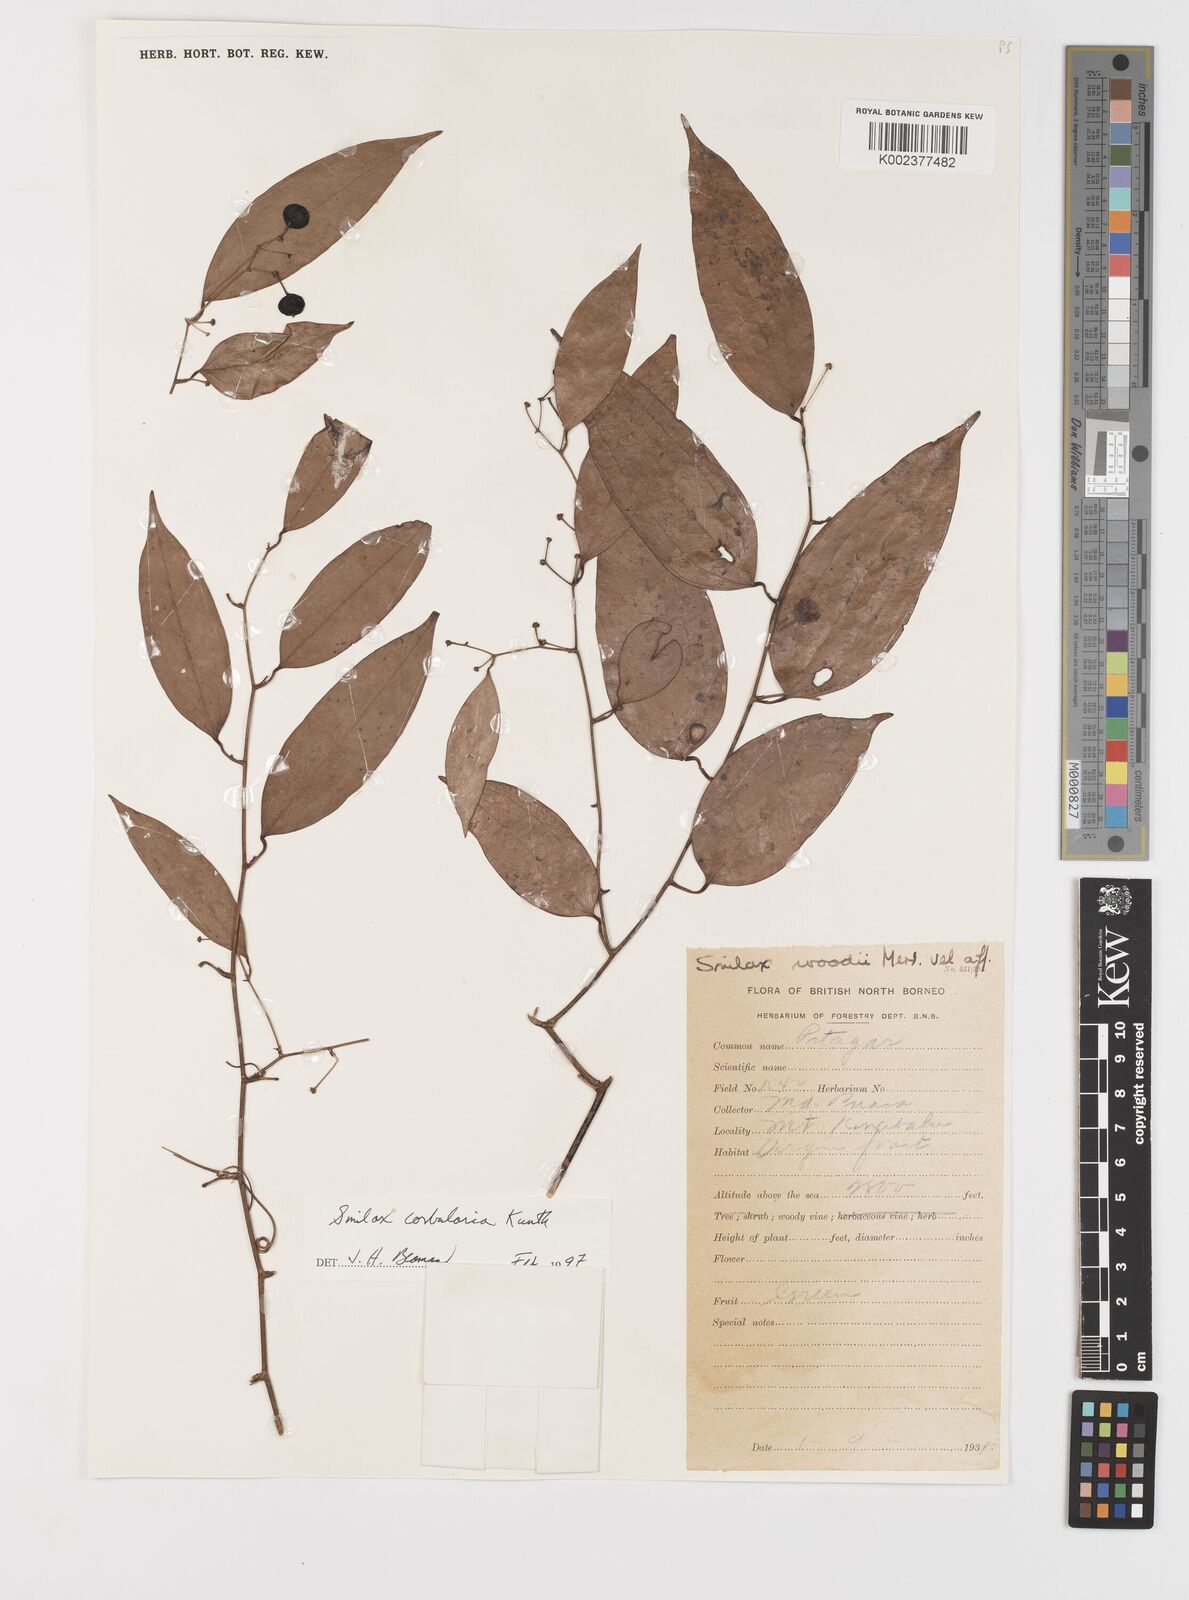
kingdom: Plantae
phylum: Tracheophyta
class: Liliopsida
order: Liliales
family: Smilacaceae
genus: Smilax
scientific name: Smilax corbularia
